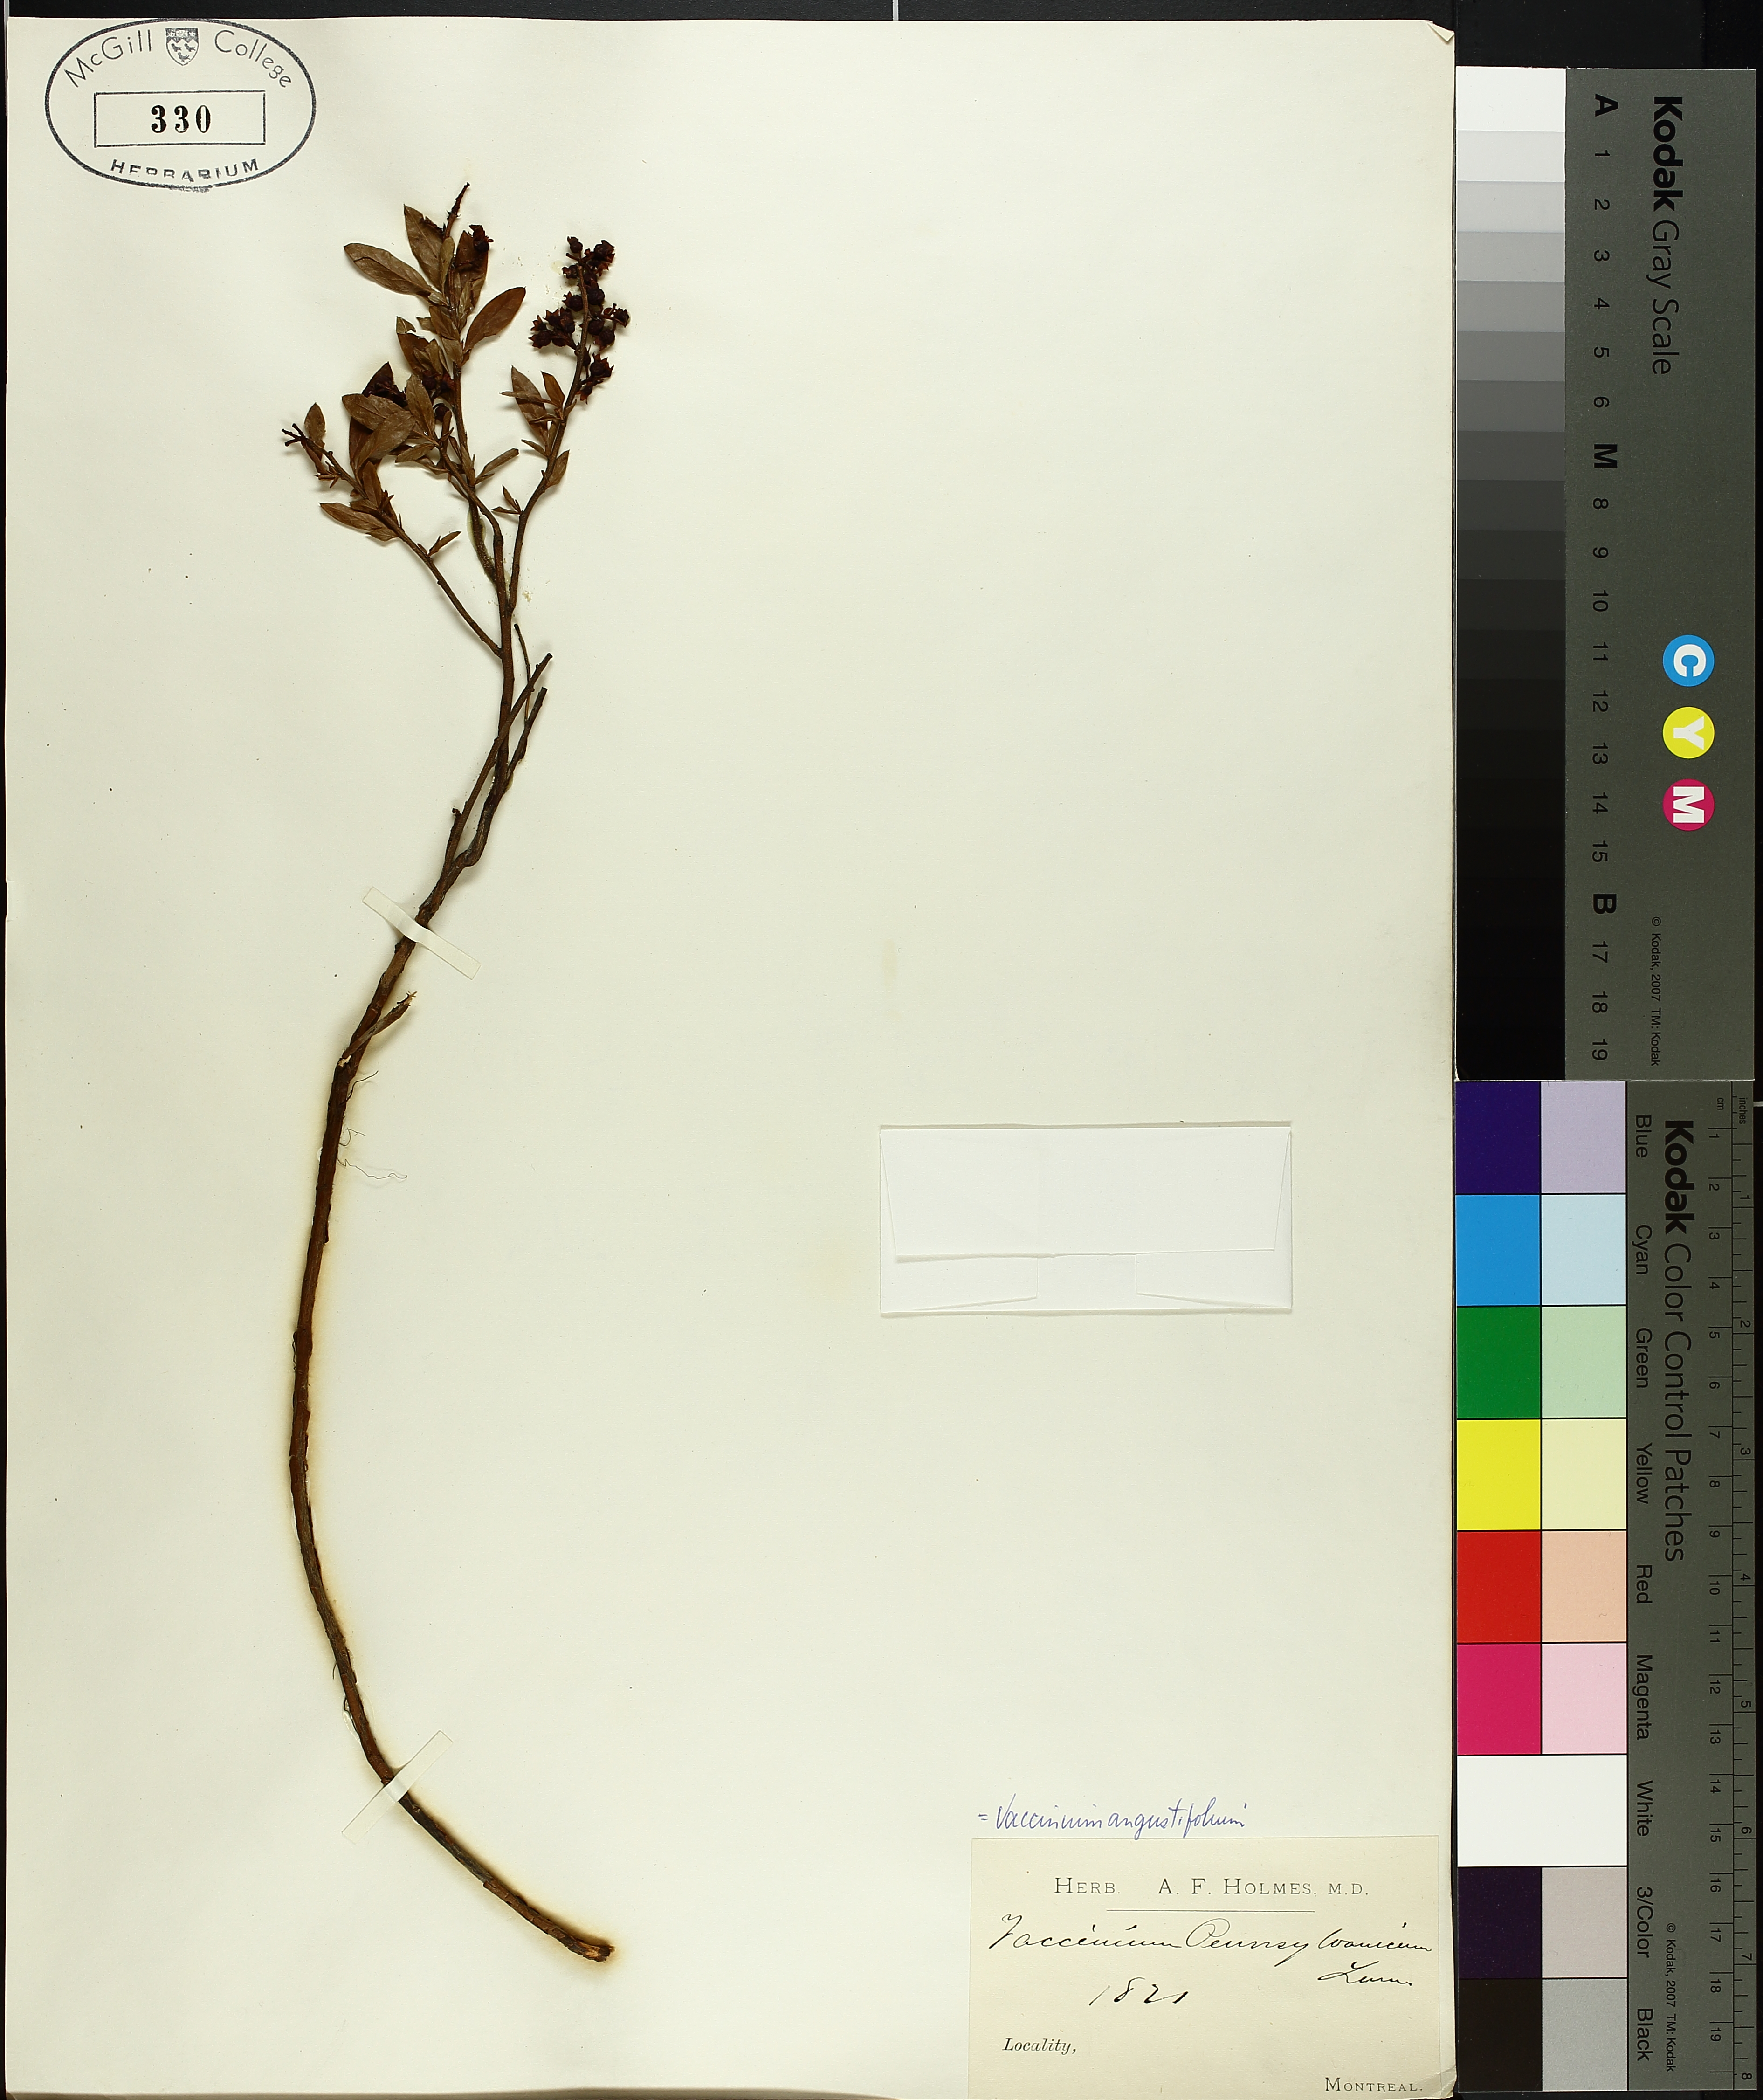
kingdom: Plantae
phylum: Tracheophyta
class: Magnoliopsida
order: Ericales
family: Ericaceae
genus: Vaccinium
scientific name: Vaccinium angustifolium
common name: Early lowbush blueberry
